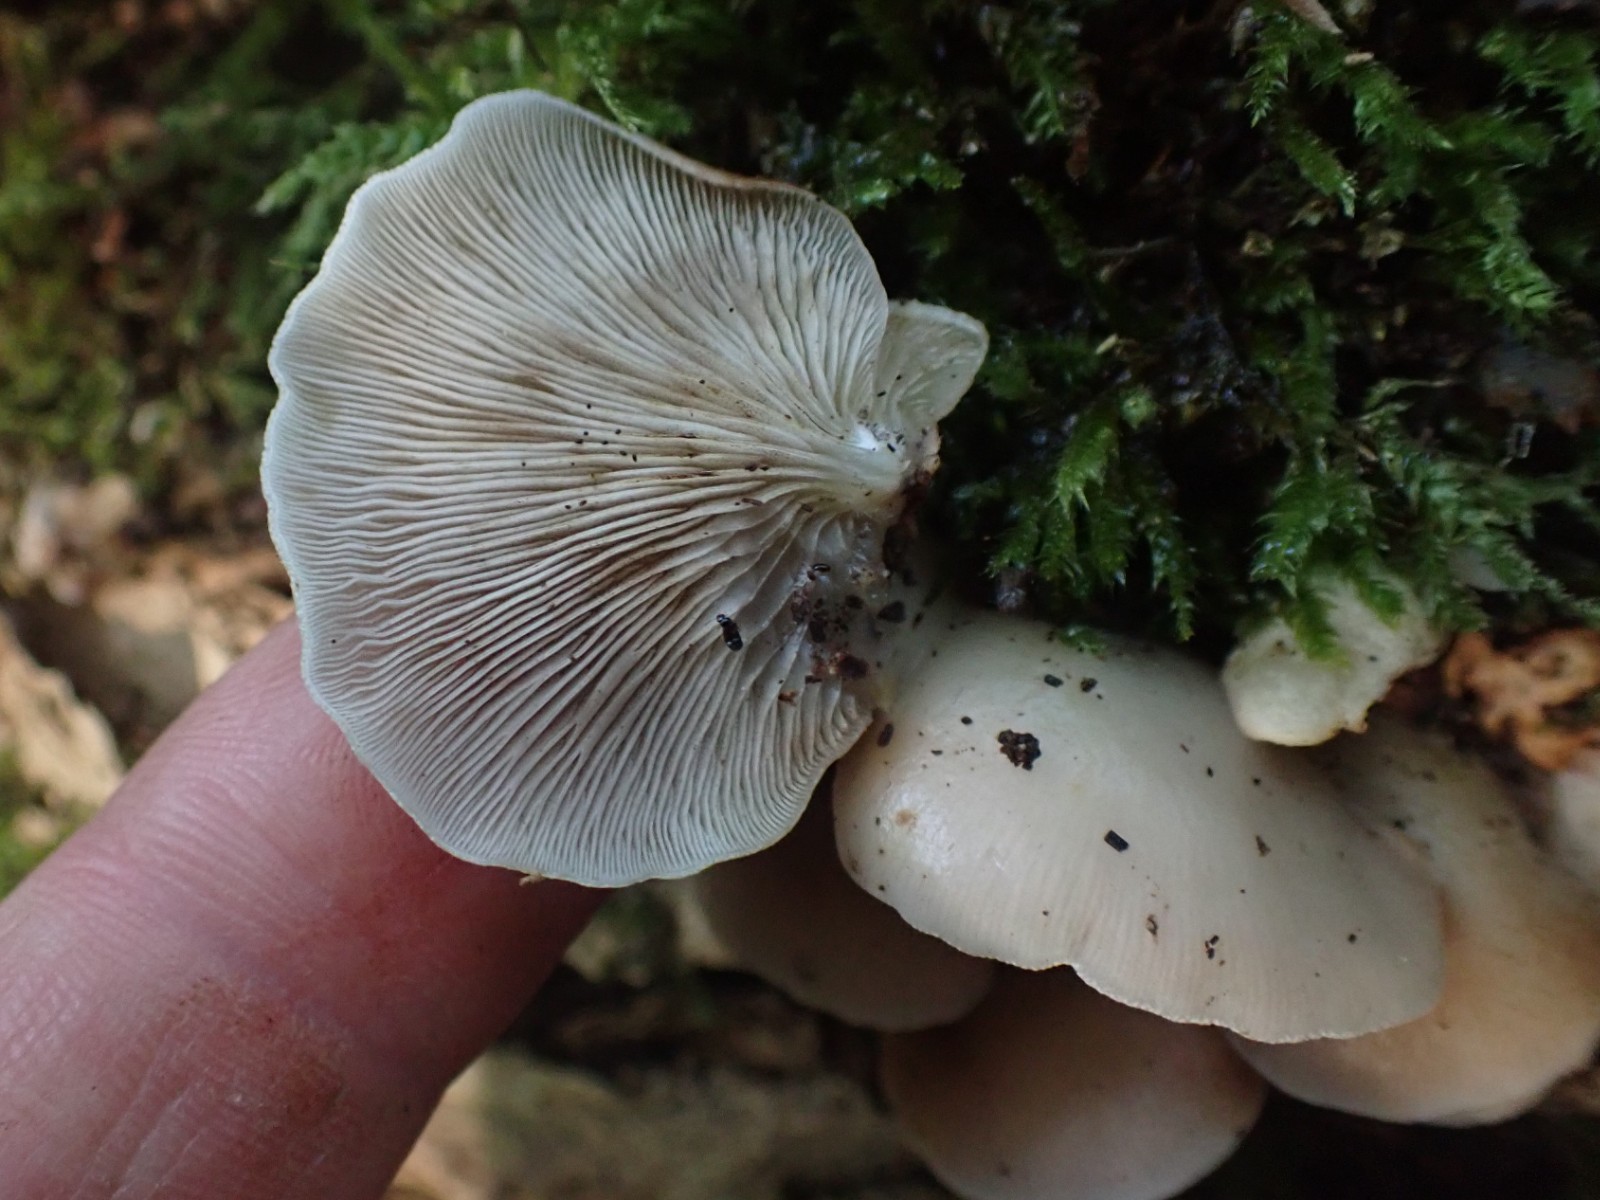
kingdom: Fungi
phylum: Basidiomycota
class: Agaricomycetes
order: Agaricales
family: Crepidotaceae
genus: Crepidotus
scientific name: Crepidotus mollis
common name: blød muslingesvamp
